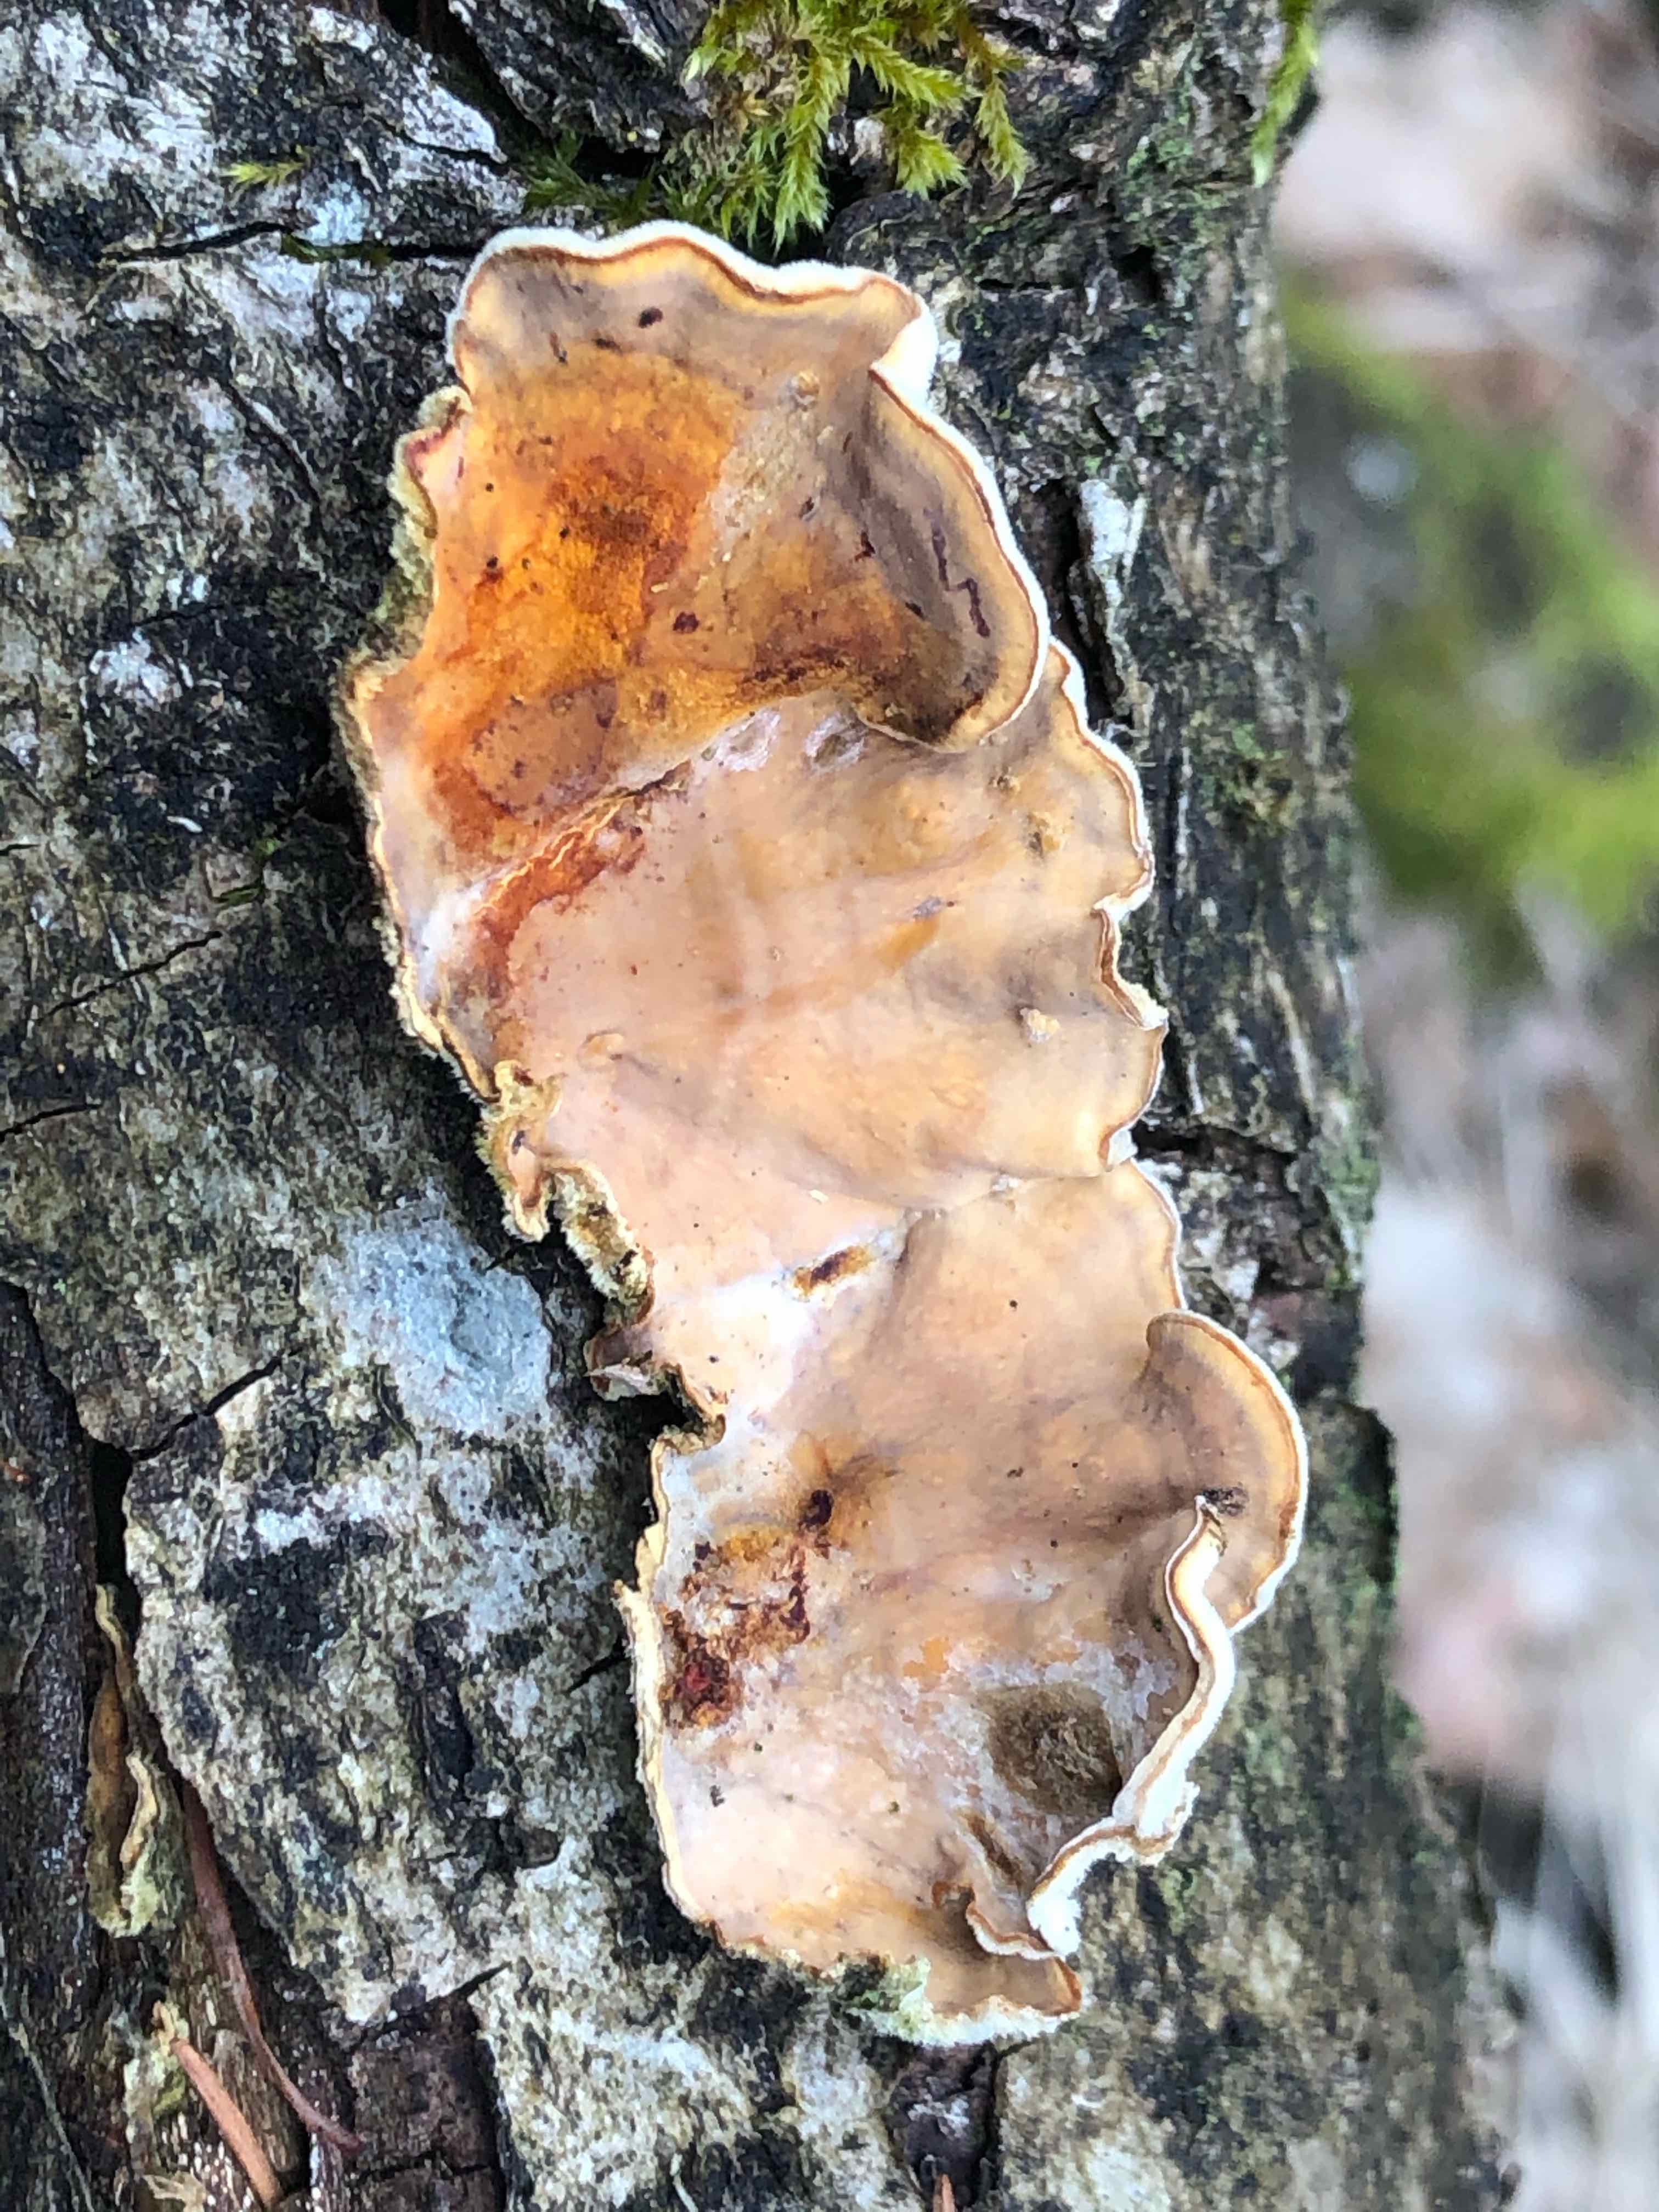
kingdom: Fungi
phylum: Basidiomycota
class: Agaricomycetes
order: Russulales
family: Stereaceae
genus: Stereum
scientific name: Stereum hirsutum
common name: håret lædersvamp
